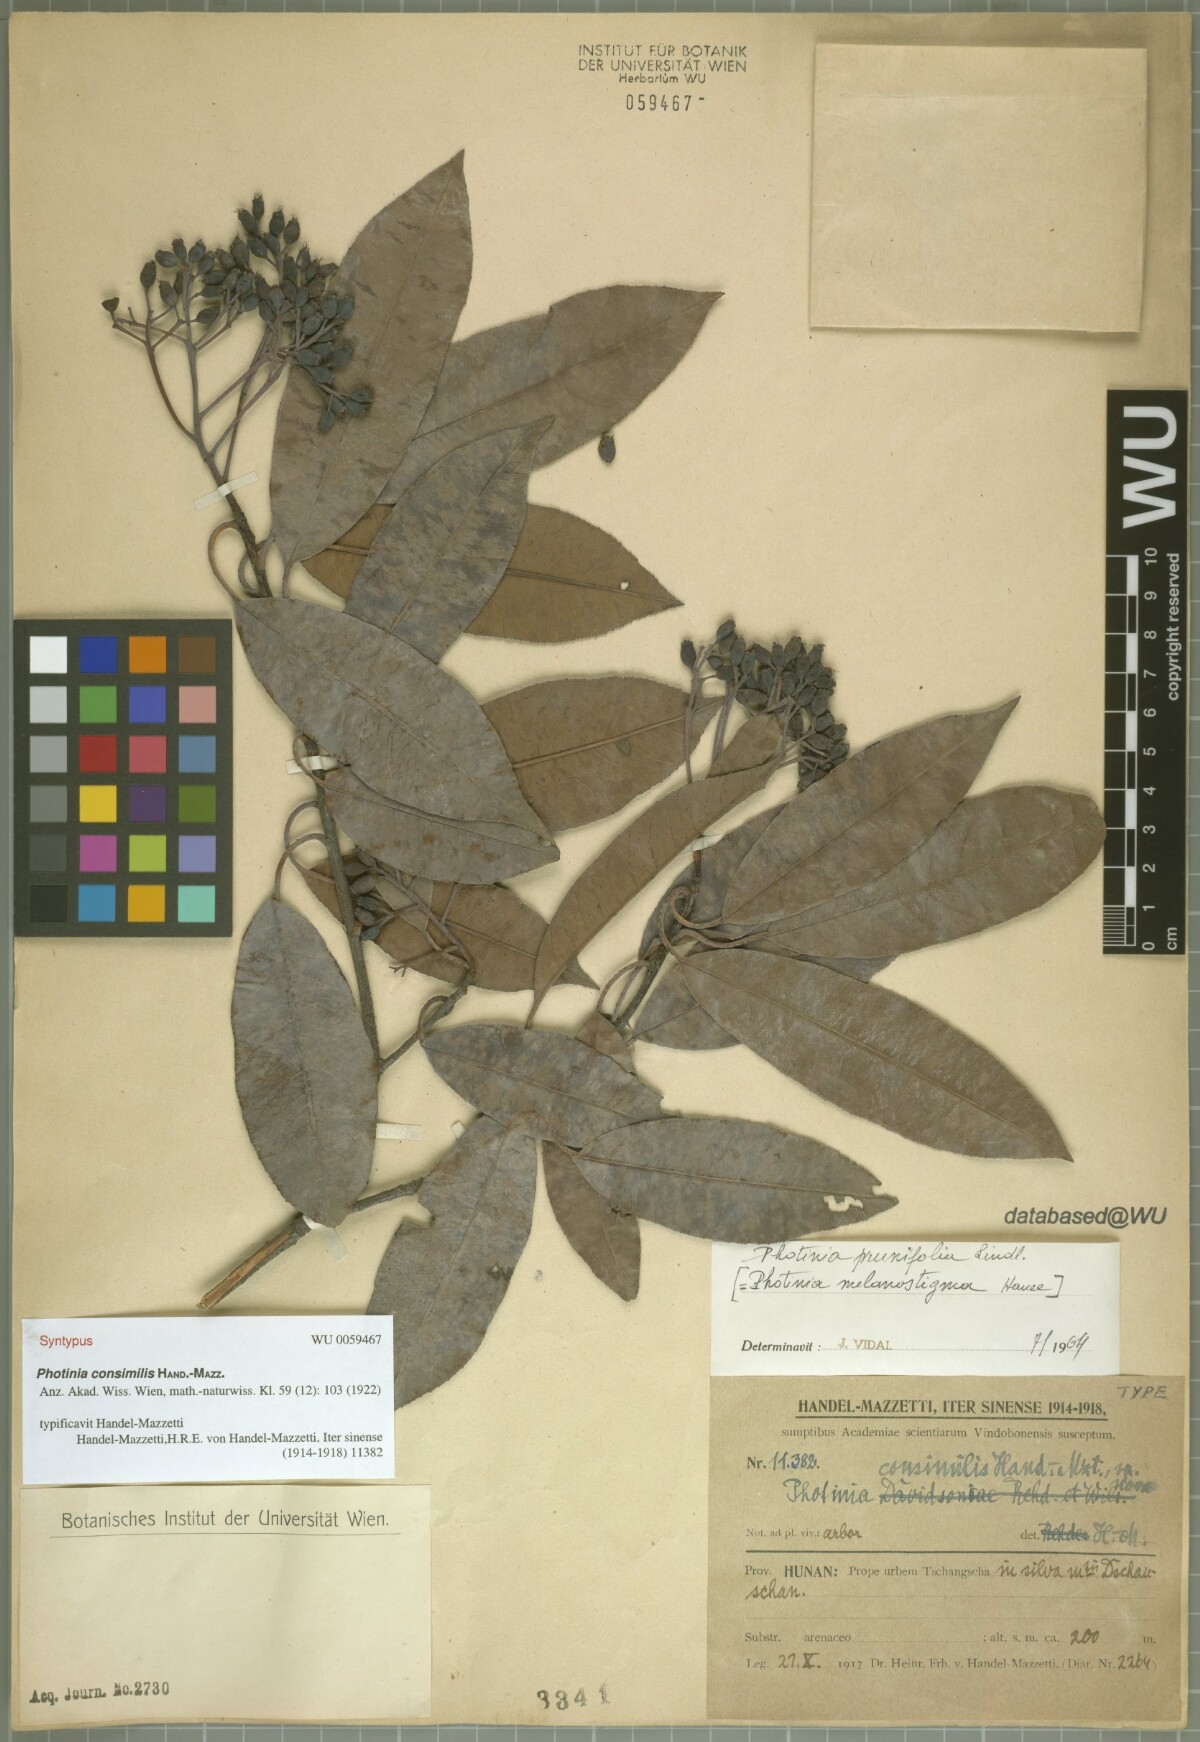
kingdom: Plantae
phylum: Tracheophyta
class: Magnoliopsida
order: Rosales
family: Rosaceae
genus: Photinia
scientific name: Photinia prunifolia
